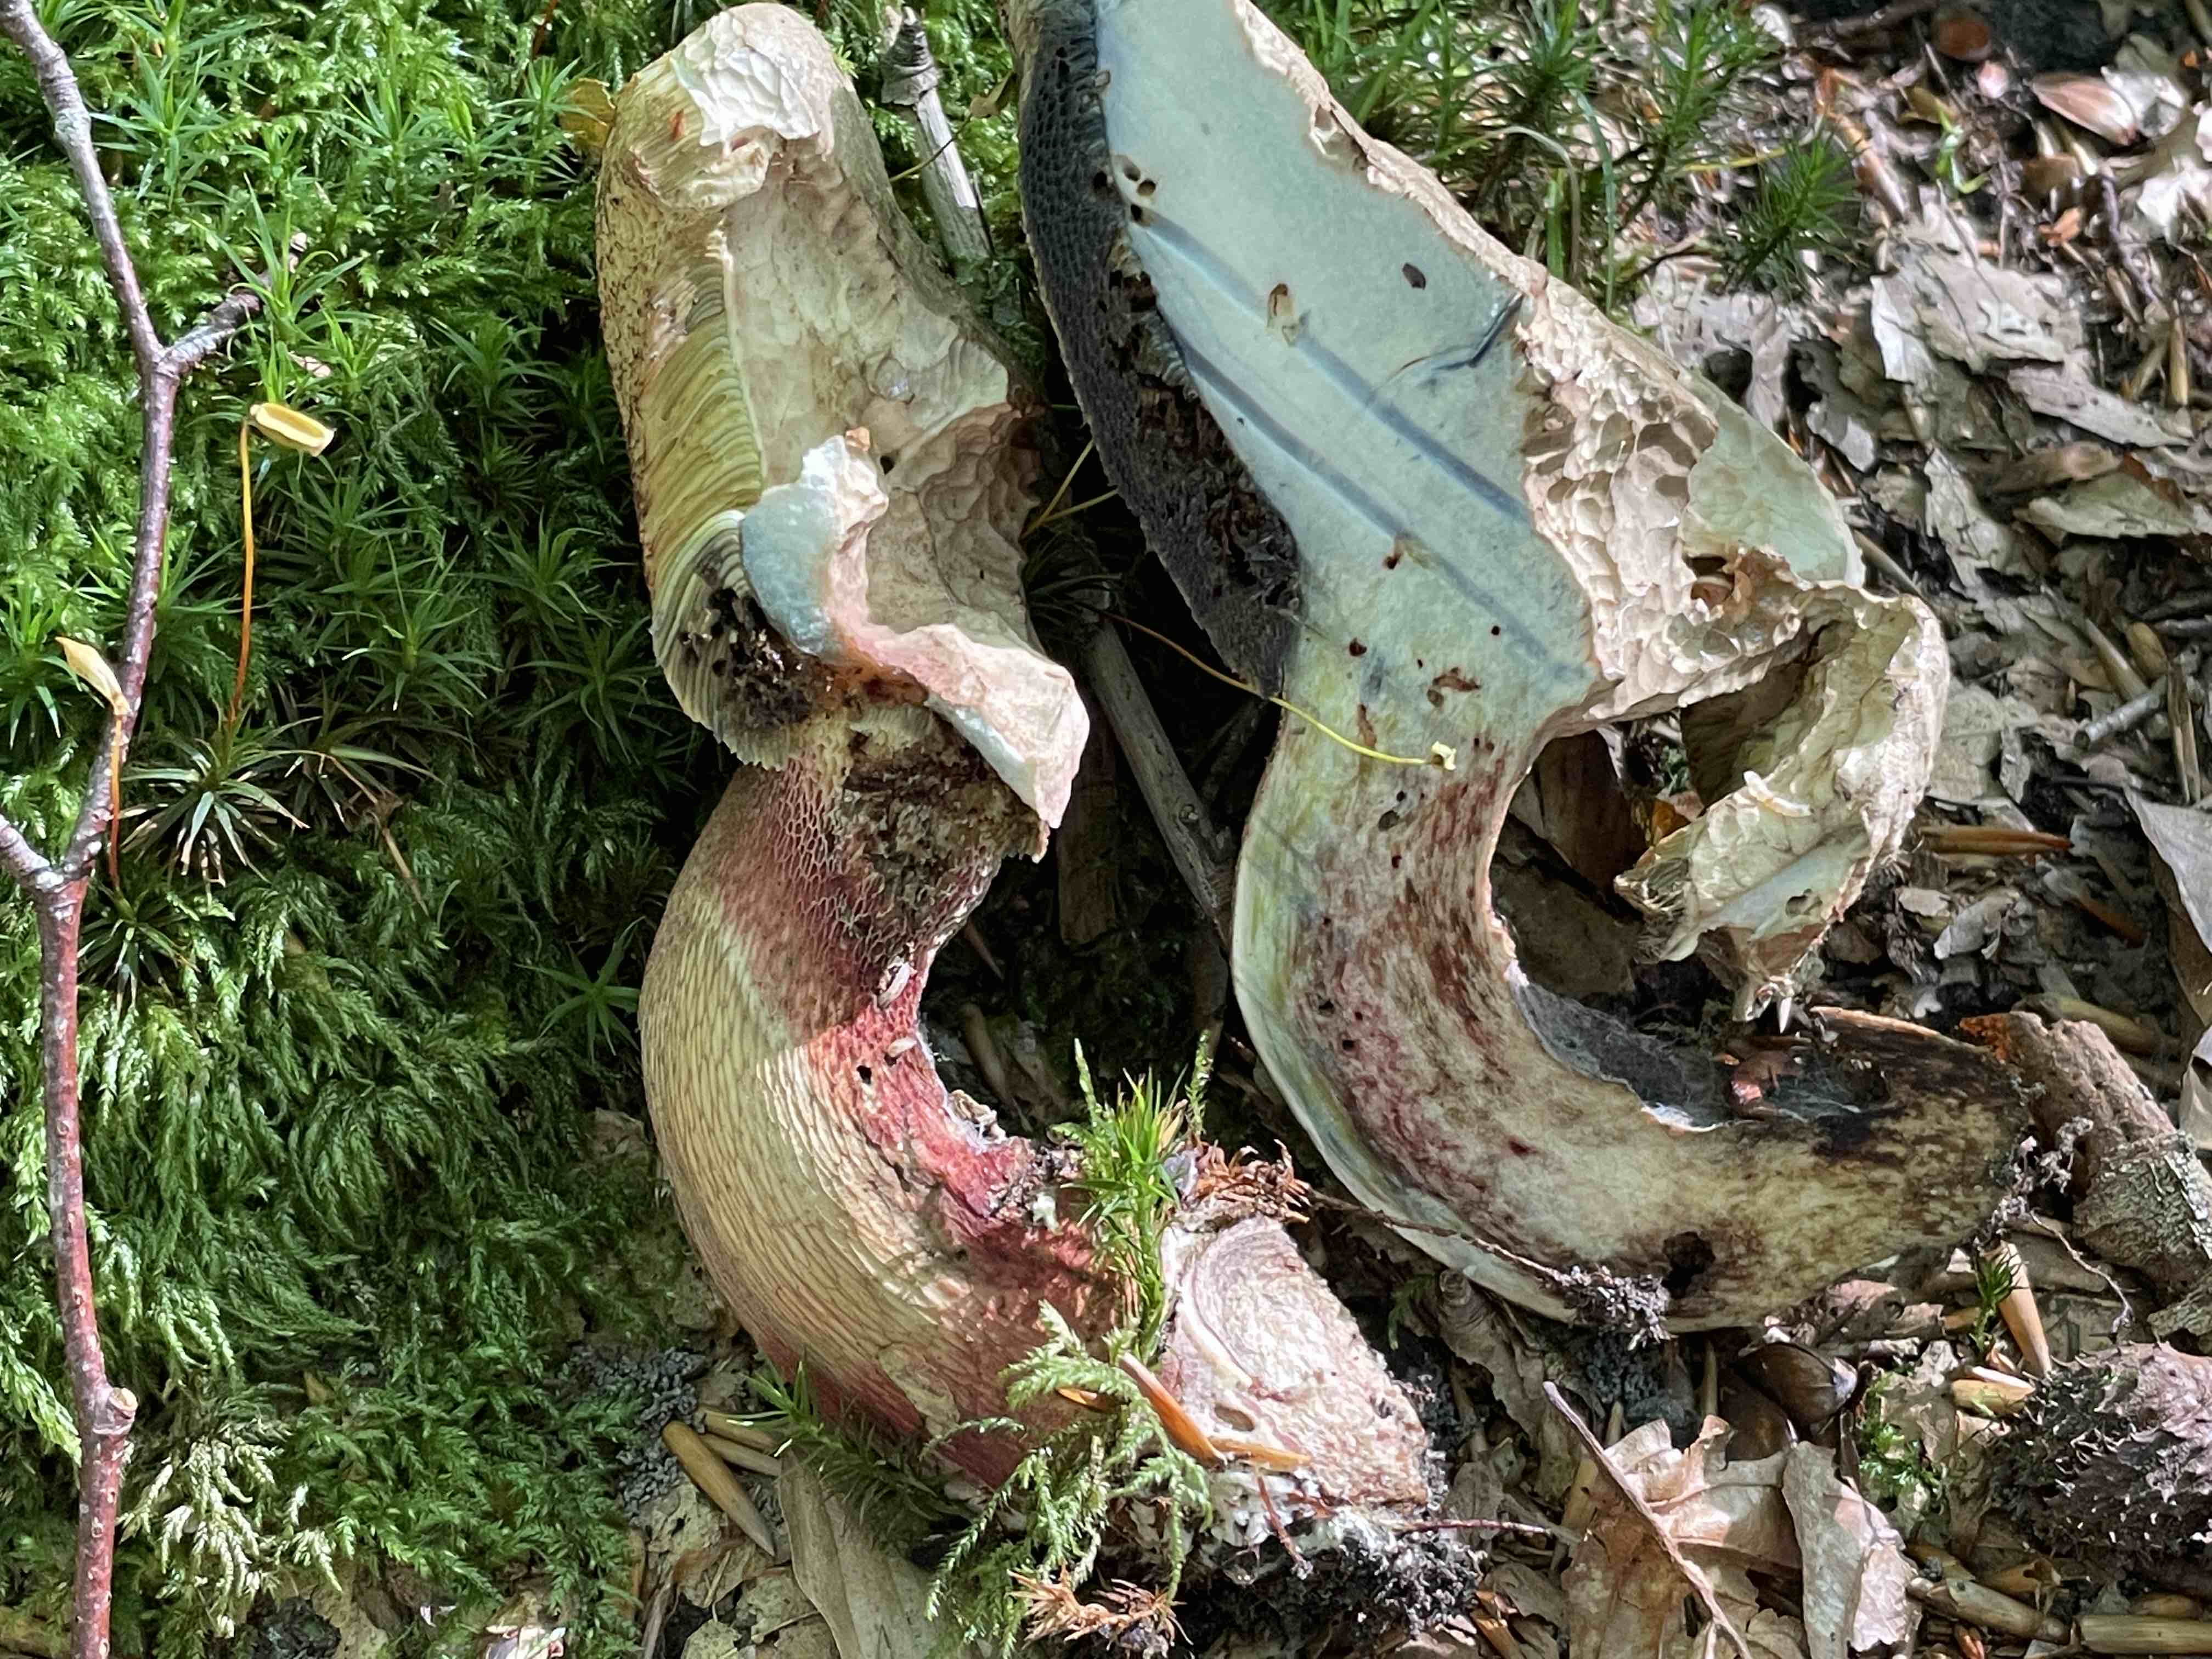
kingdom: Fungi
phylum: Basidiomycota
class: Agaricomycetes
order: Boletales
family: Boletaceae
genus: Suillellus
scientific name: Suillellus luridus
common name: netstokket indigorørhat
